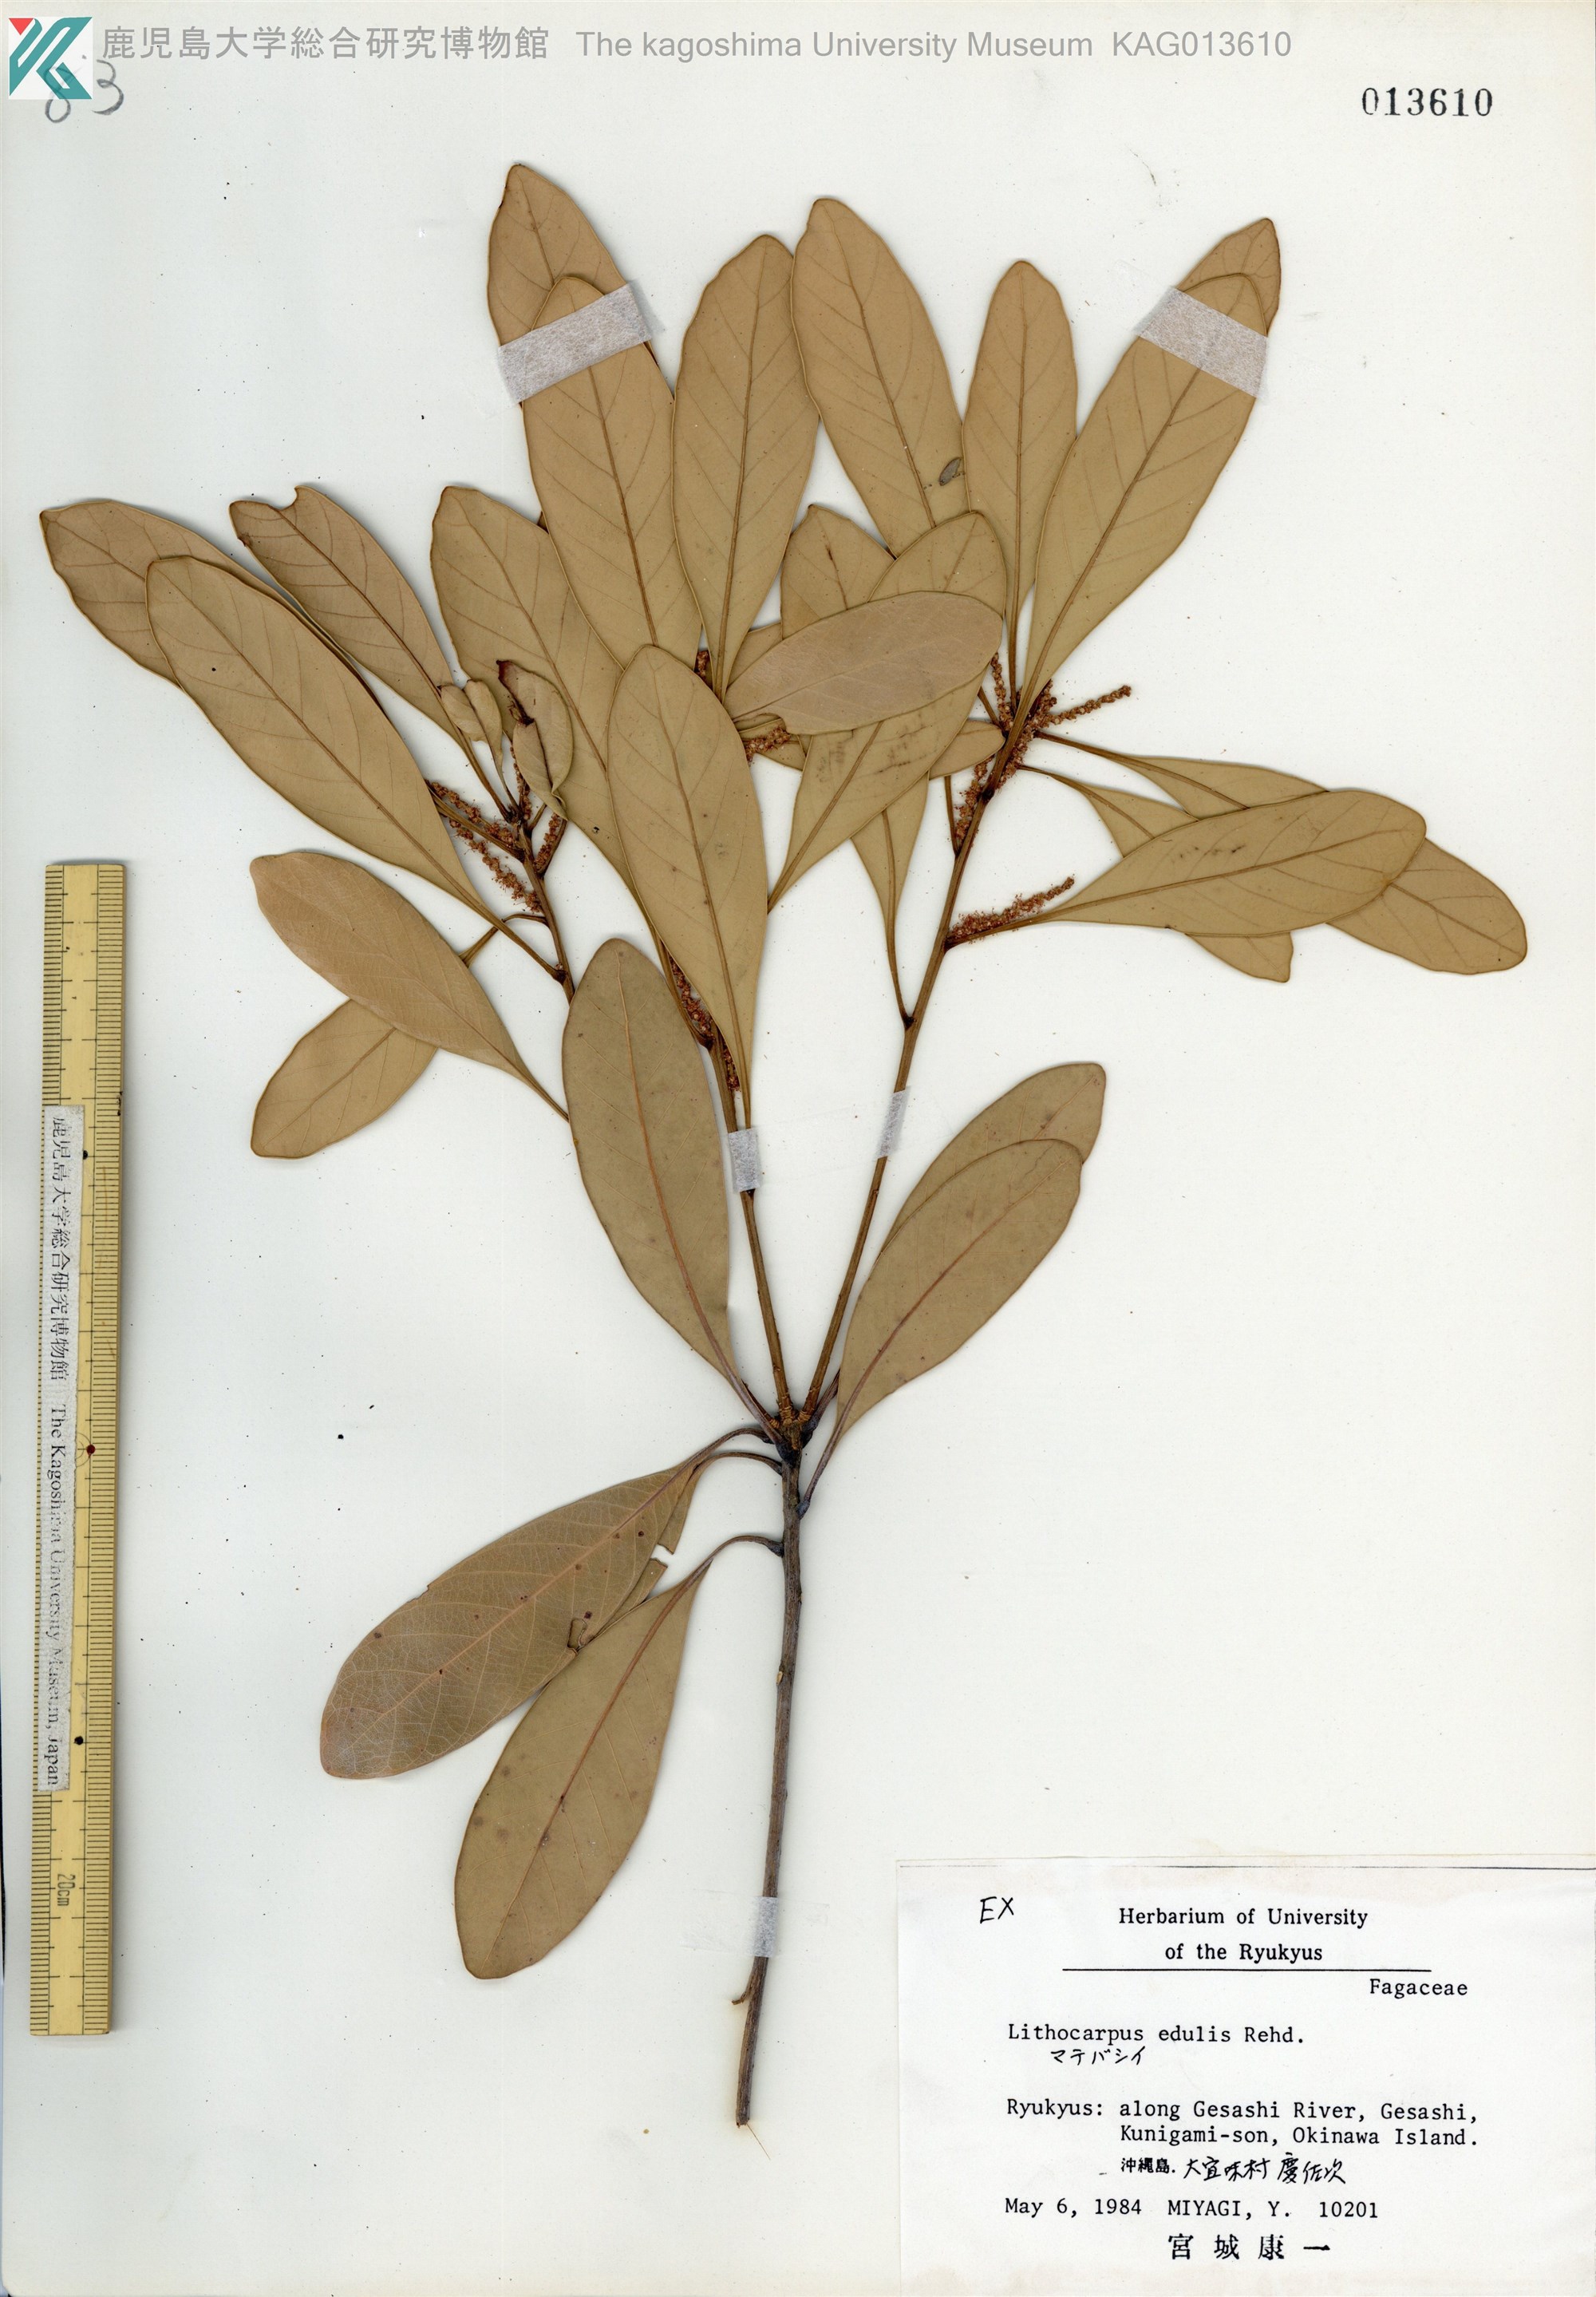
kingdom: Plantae
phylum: Tracheophyta
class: Magnoliopsida
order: Fagales
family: Fagaceae
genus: Lithocarpus
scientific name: Lithocarpus edulis
